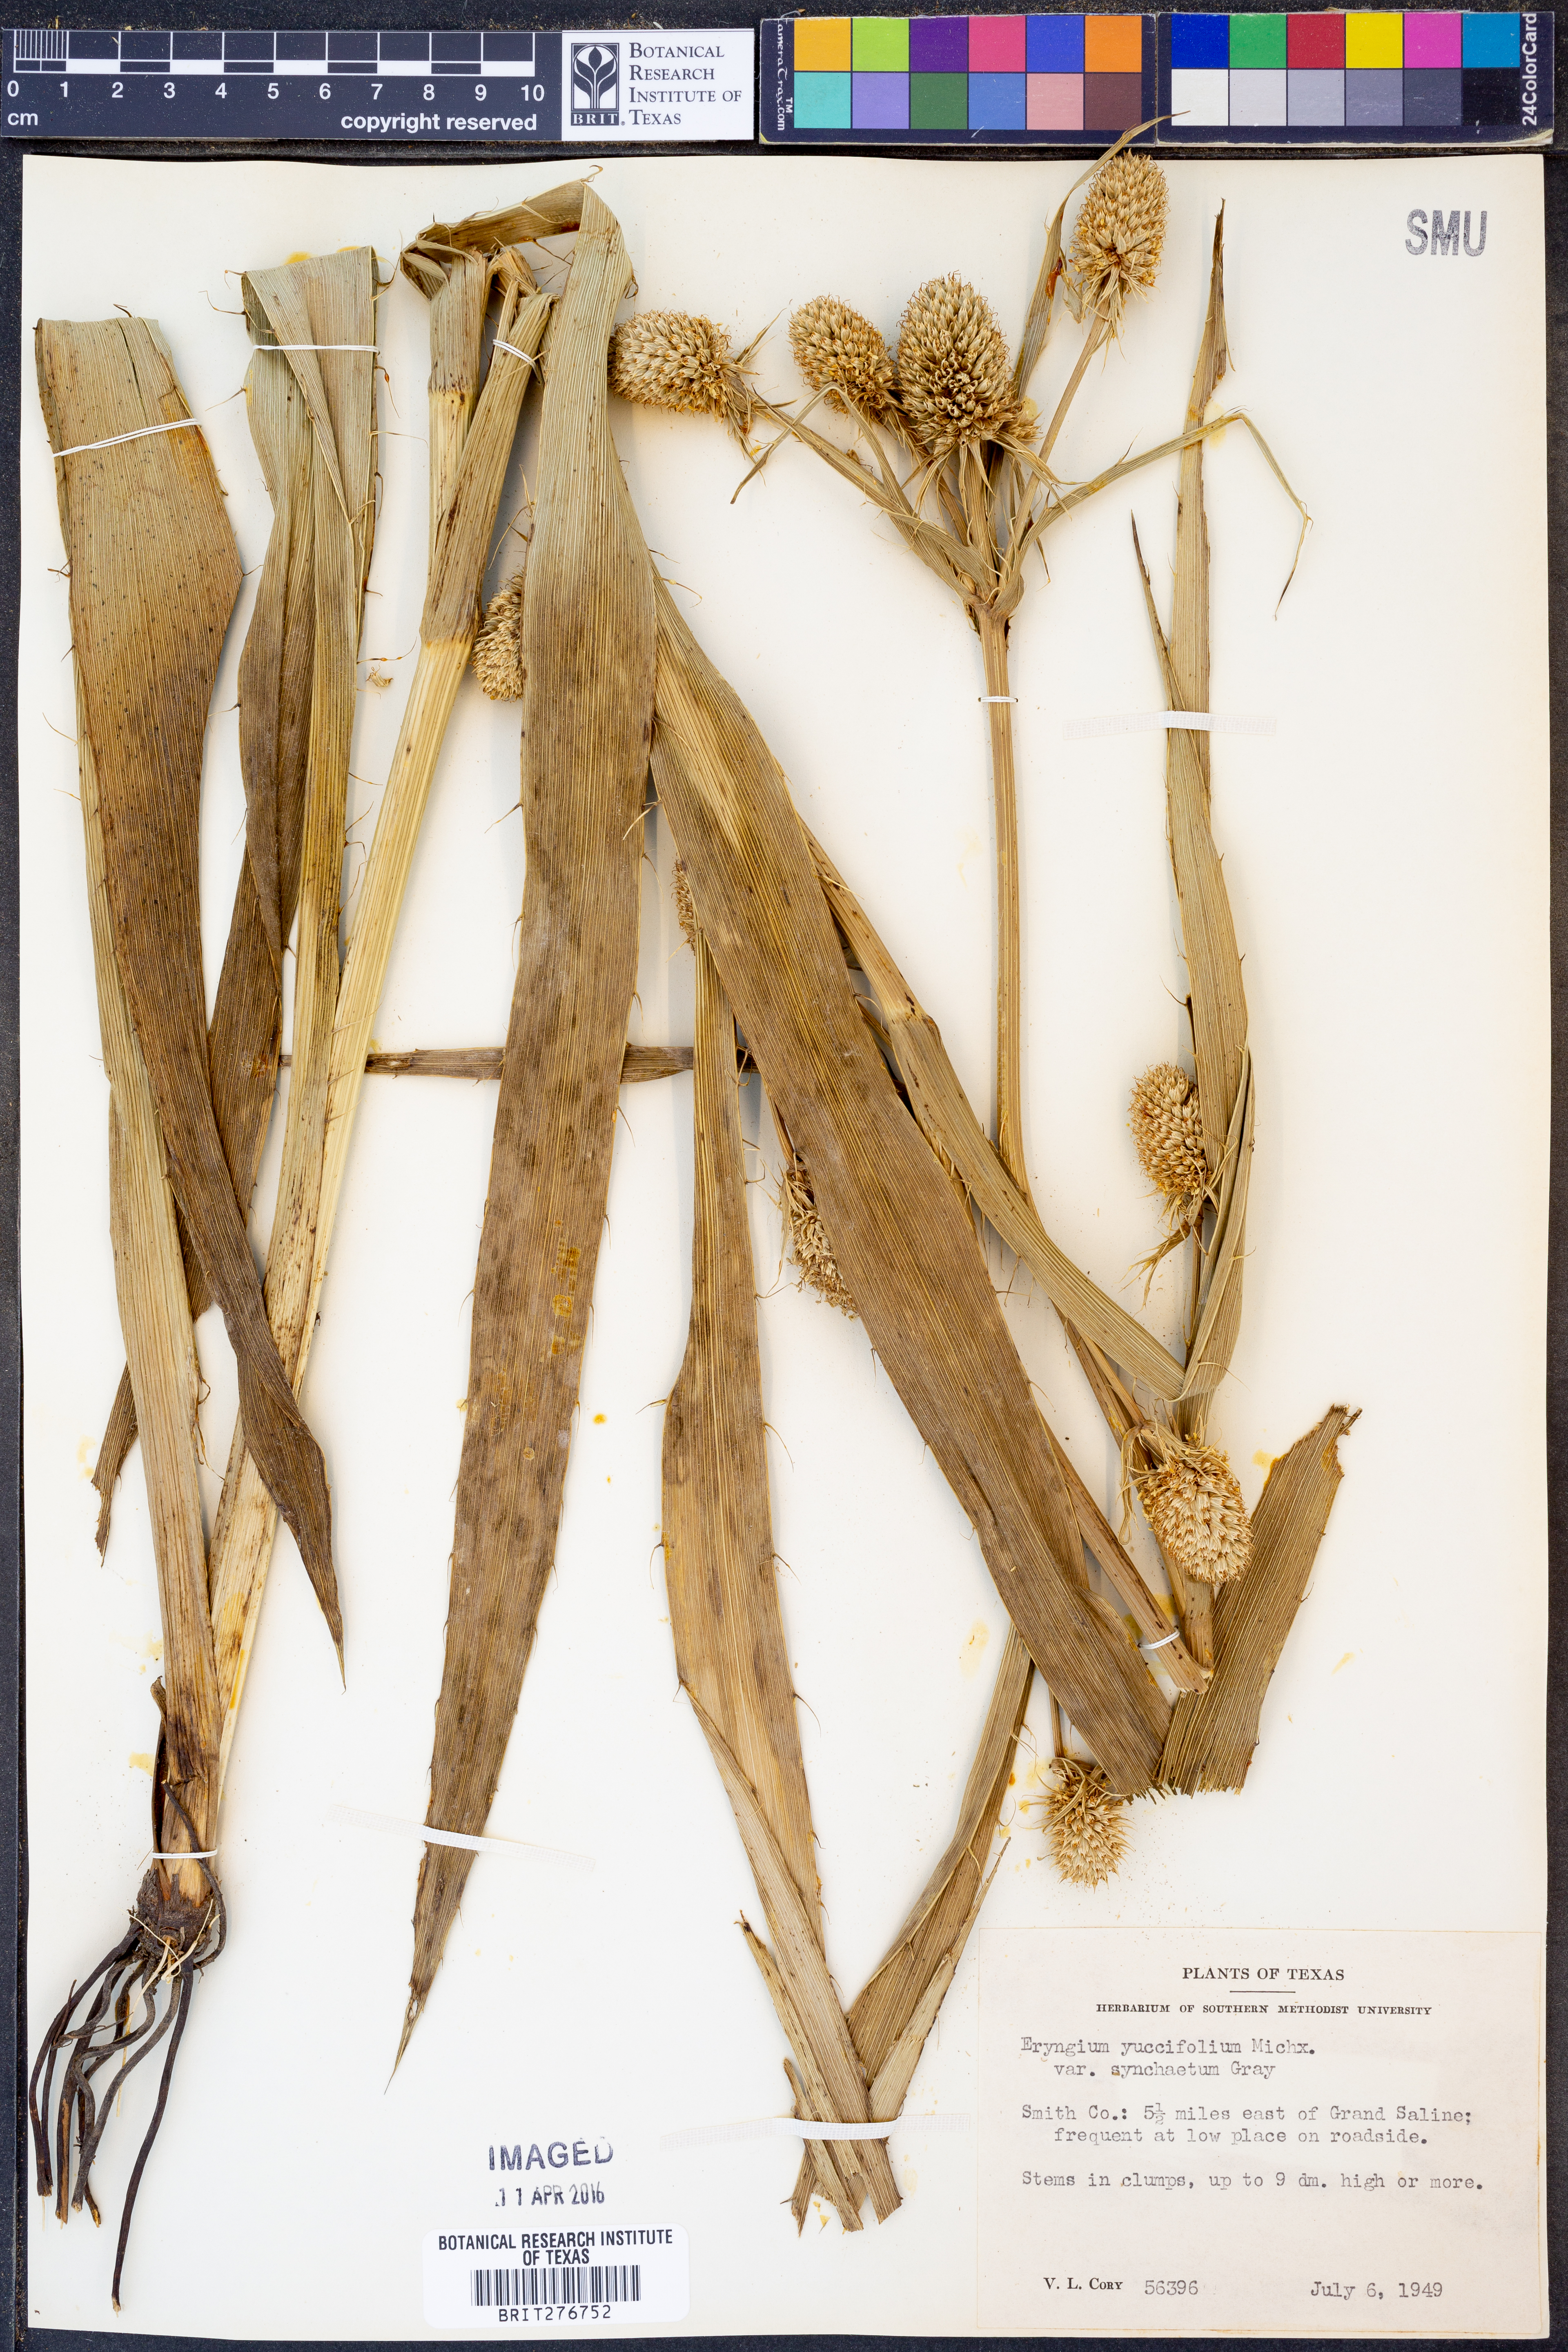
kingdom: Plantae
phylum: Tracheophyta
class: Magnoliopsida
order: Apiales
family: Apiaceae
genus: Eryngium
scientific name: Eryngium yuccifolium
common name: Button eryngo
